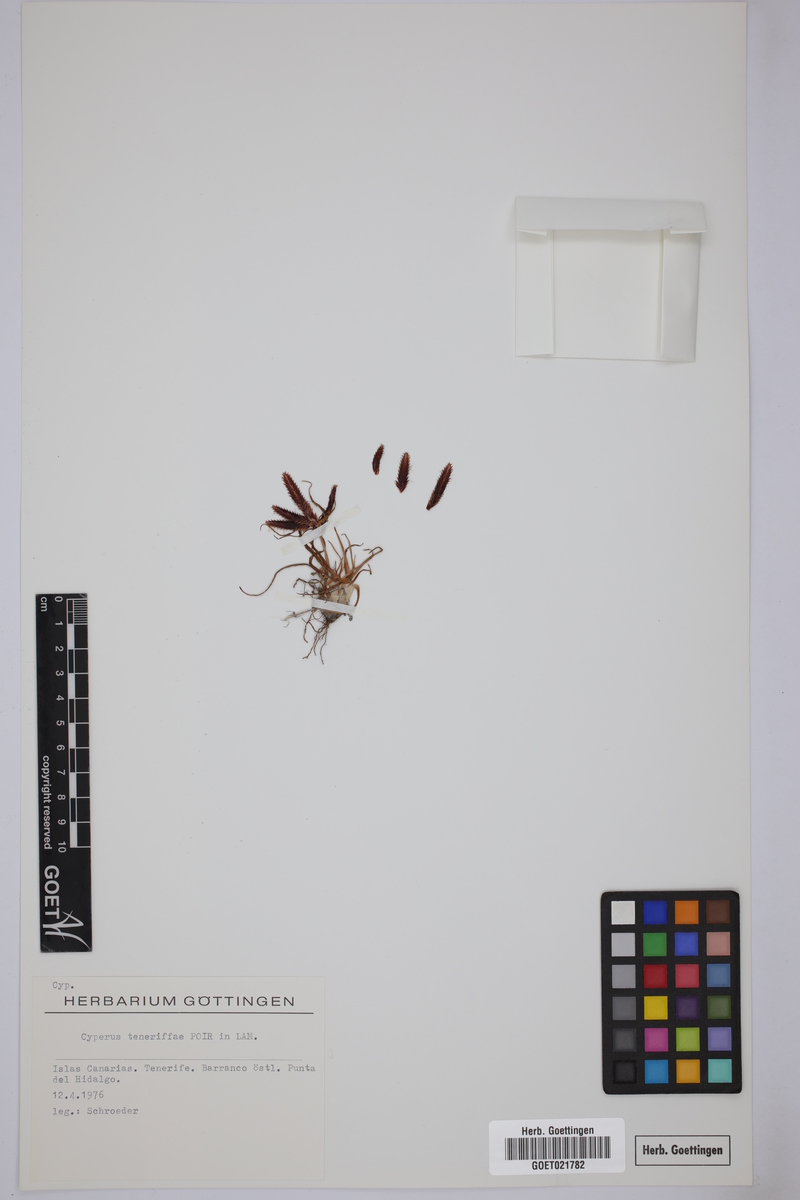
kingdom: Plantae
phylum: Tracheophyta
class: Liliopsida
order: Poales
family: Cyperaceae
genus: Cyperus
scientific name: Cyperus rubicundus
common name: Coco-grass
